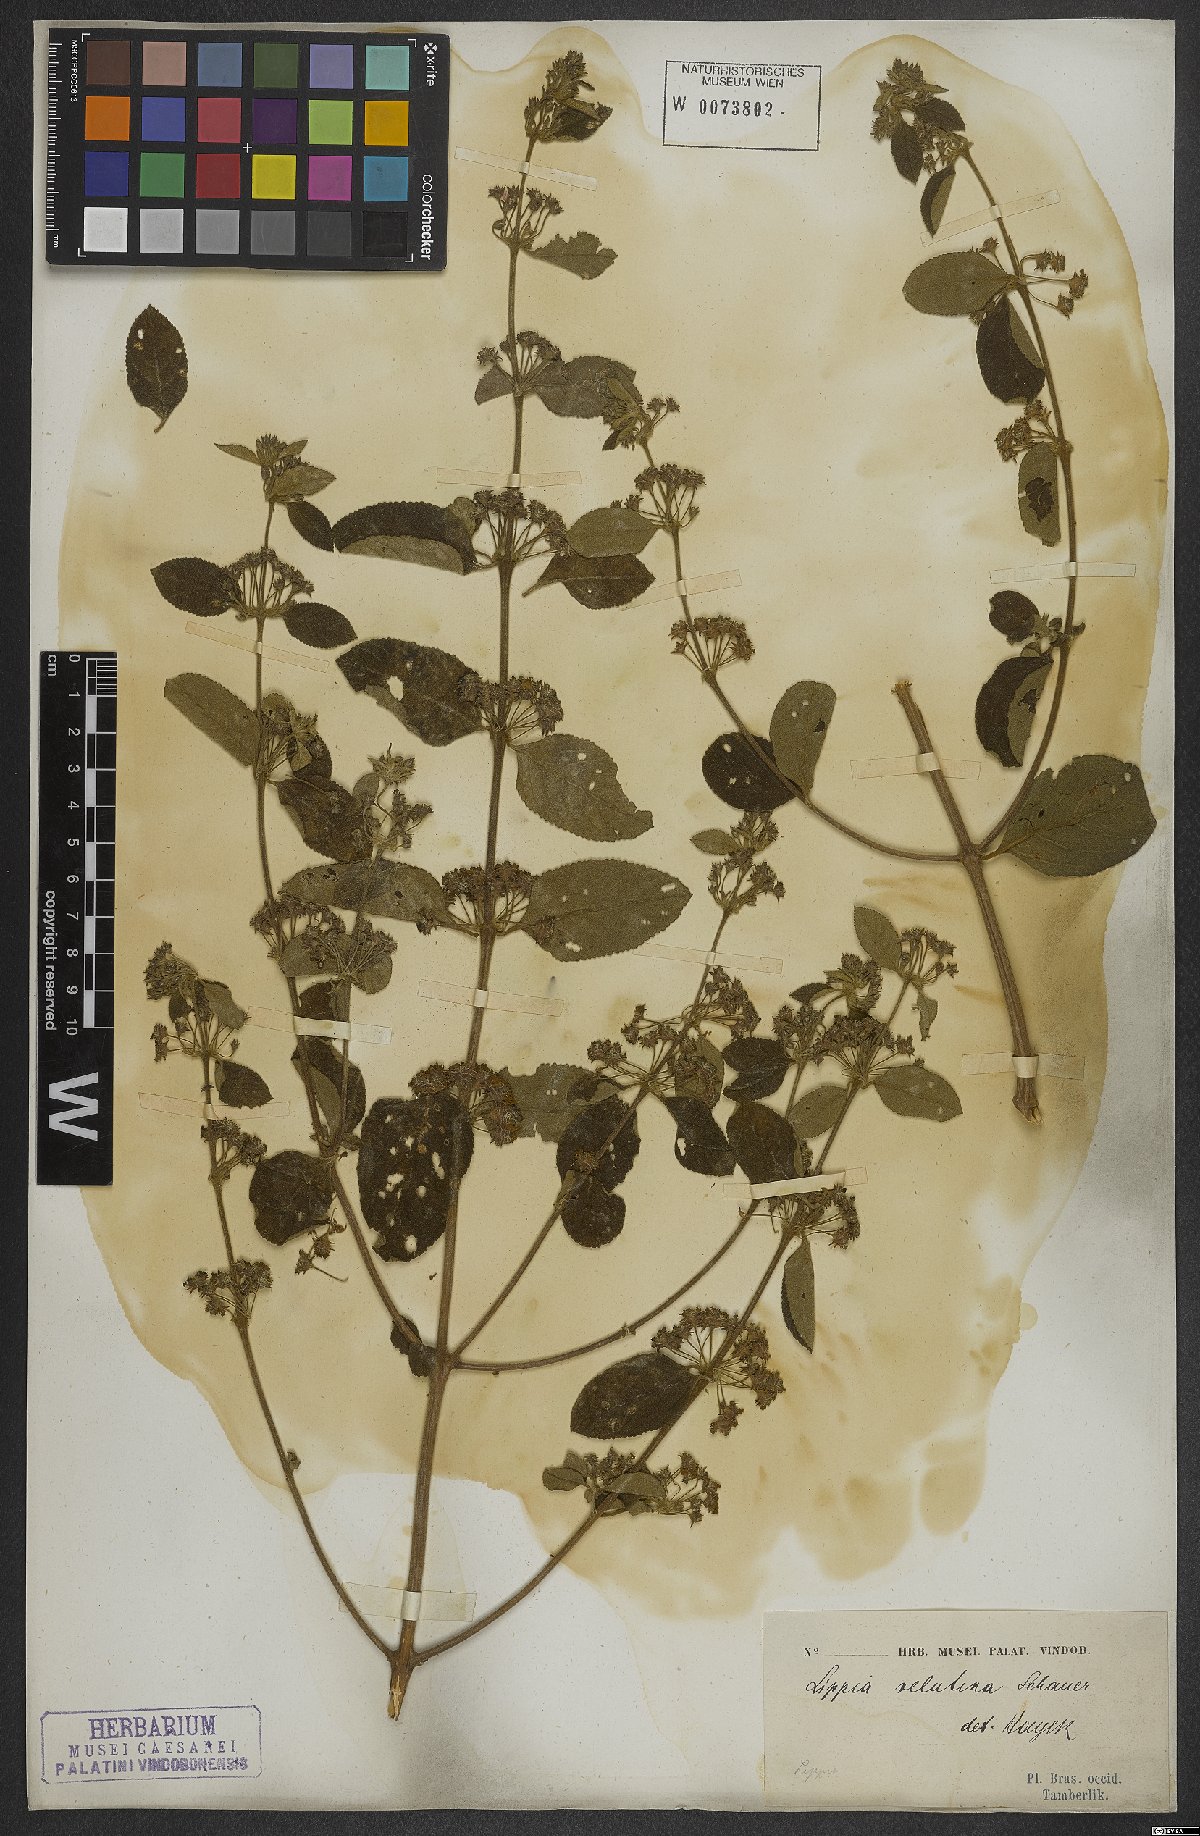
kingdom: Plantae
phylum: Tracheophyta
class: Magnoliopsida
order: Lamiales
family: Verbenaceae
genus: Lippia
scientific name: Lippia origanoides
